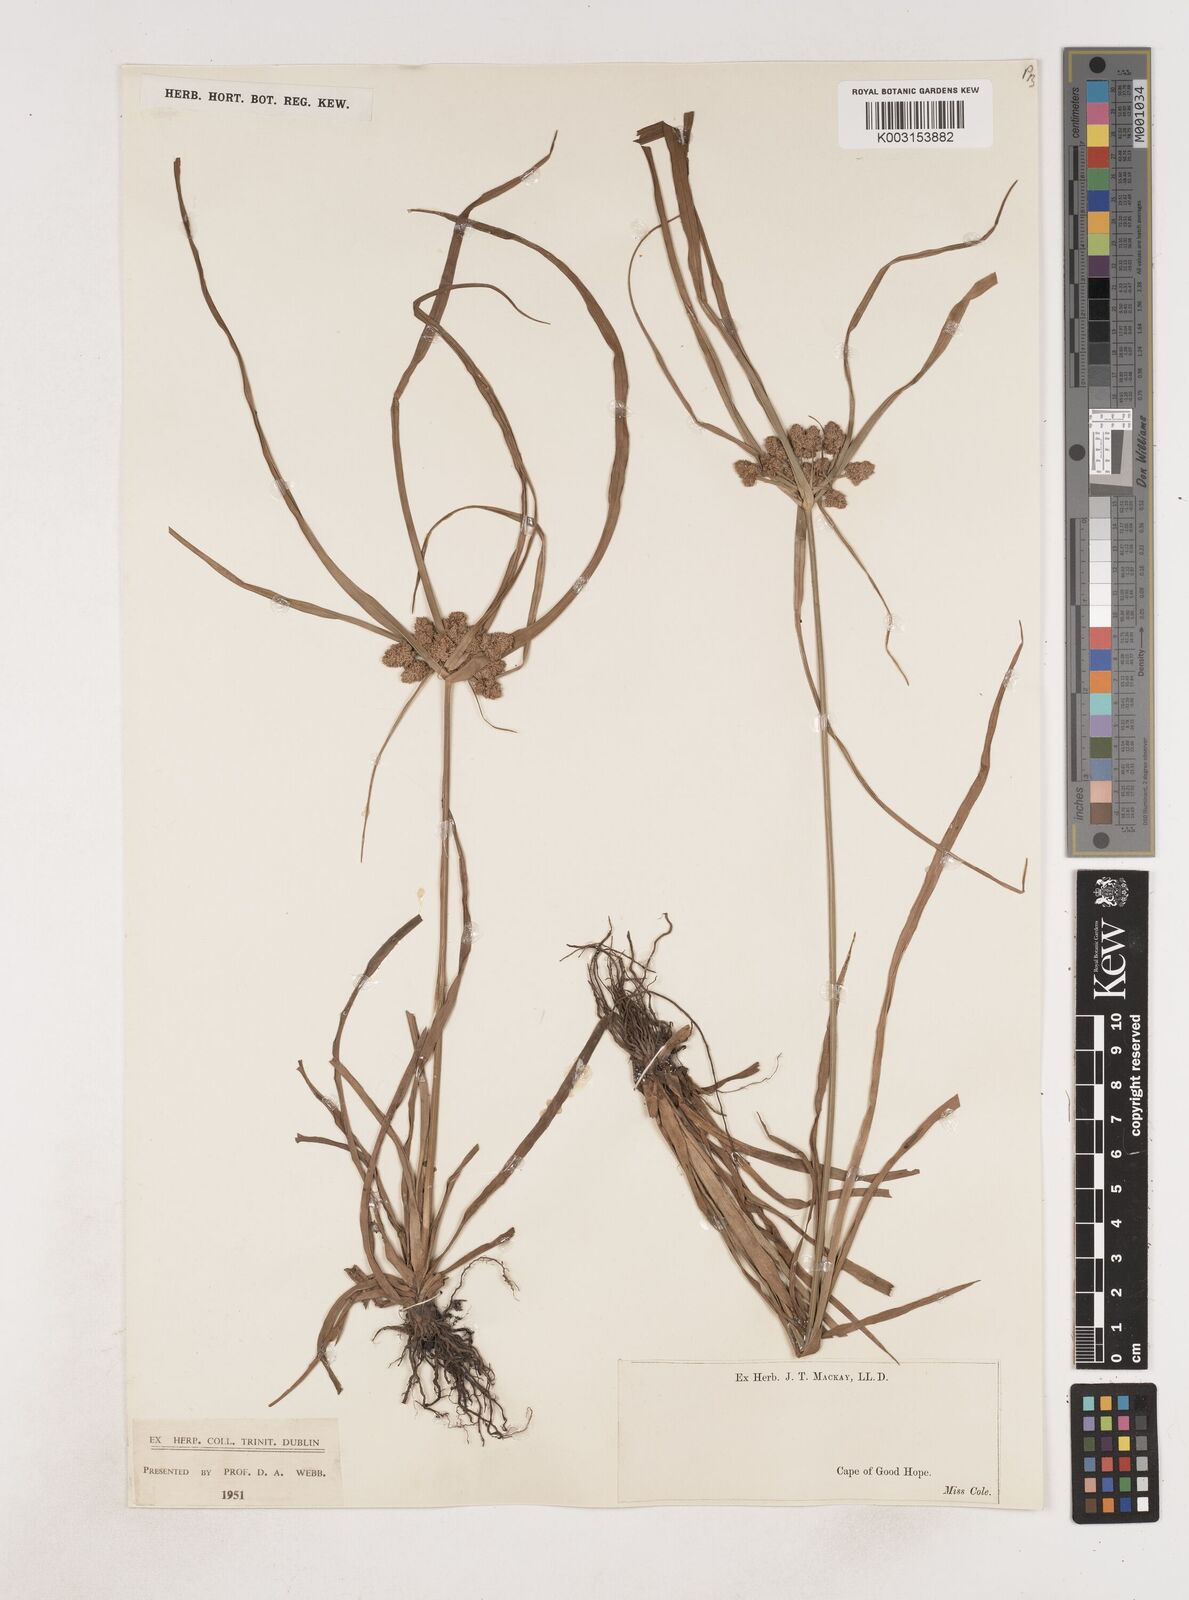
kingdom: Plantae
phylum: Tracheophyta
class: Liliopsida
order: Poales
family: Cyperaceae
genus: Cyperus
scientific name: Cyperus
